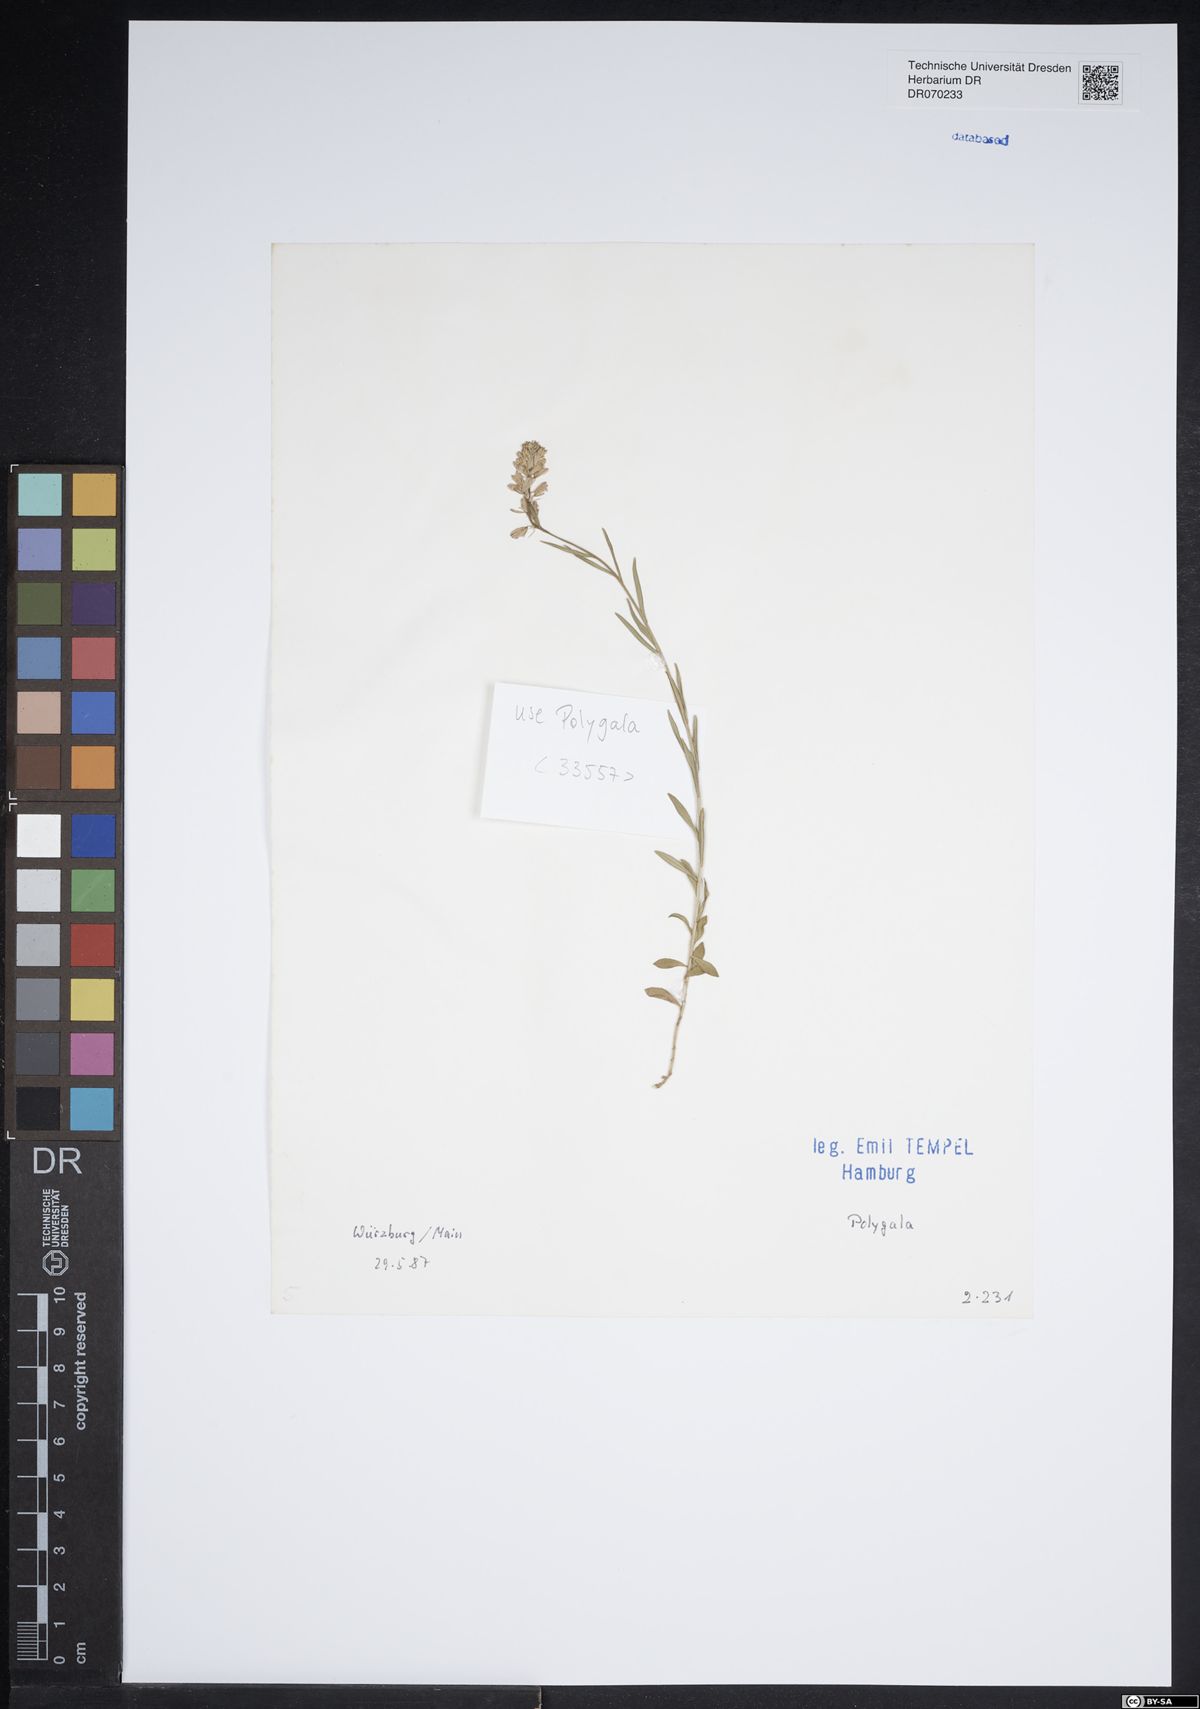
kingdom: Plantae
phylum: Tracheophyta
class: Magnoliopsida
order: Fabales
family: Polygalaceae
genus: Polygala
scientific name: Polygala
